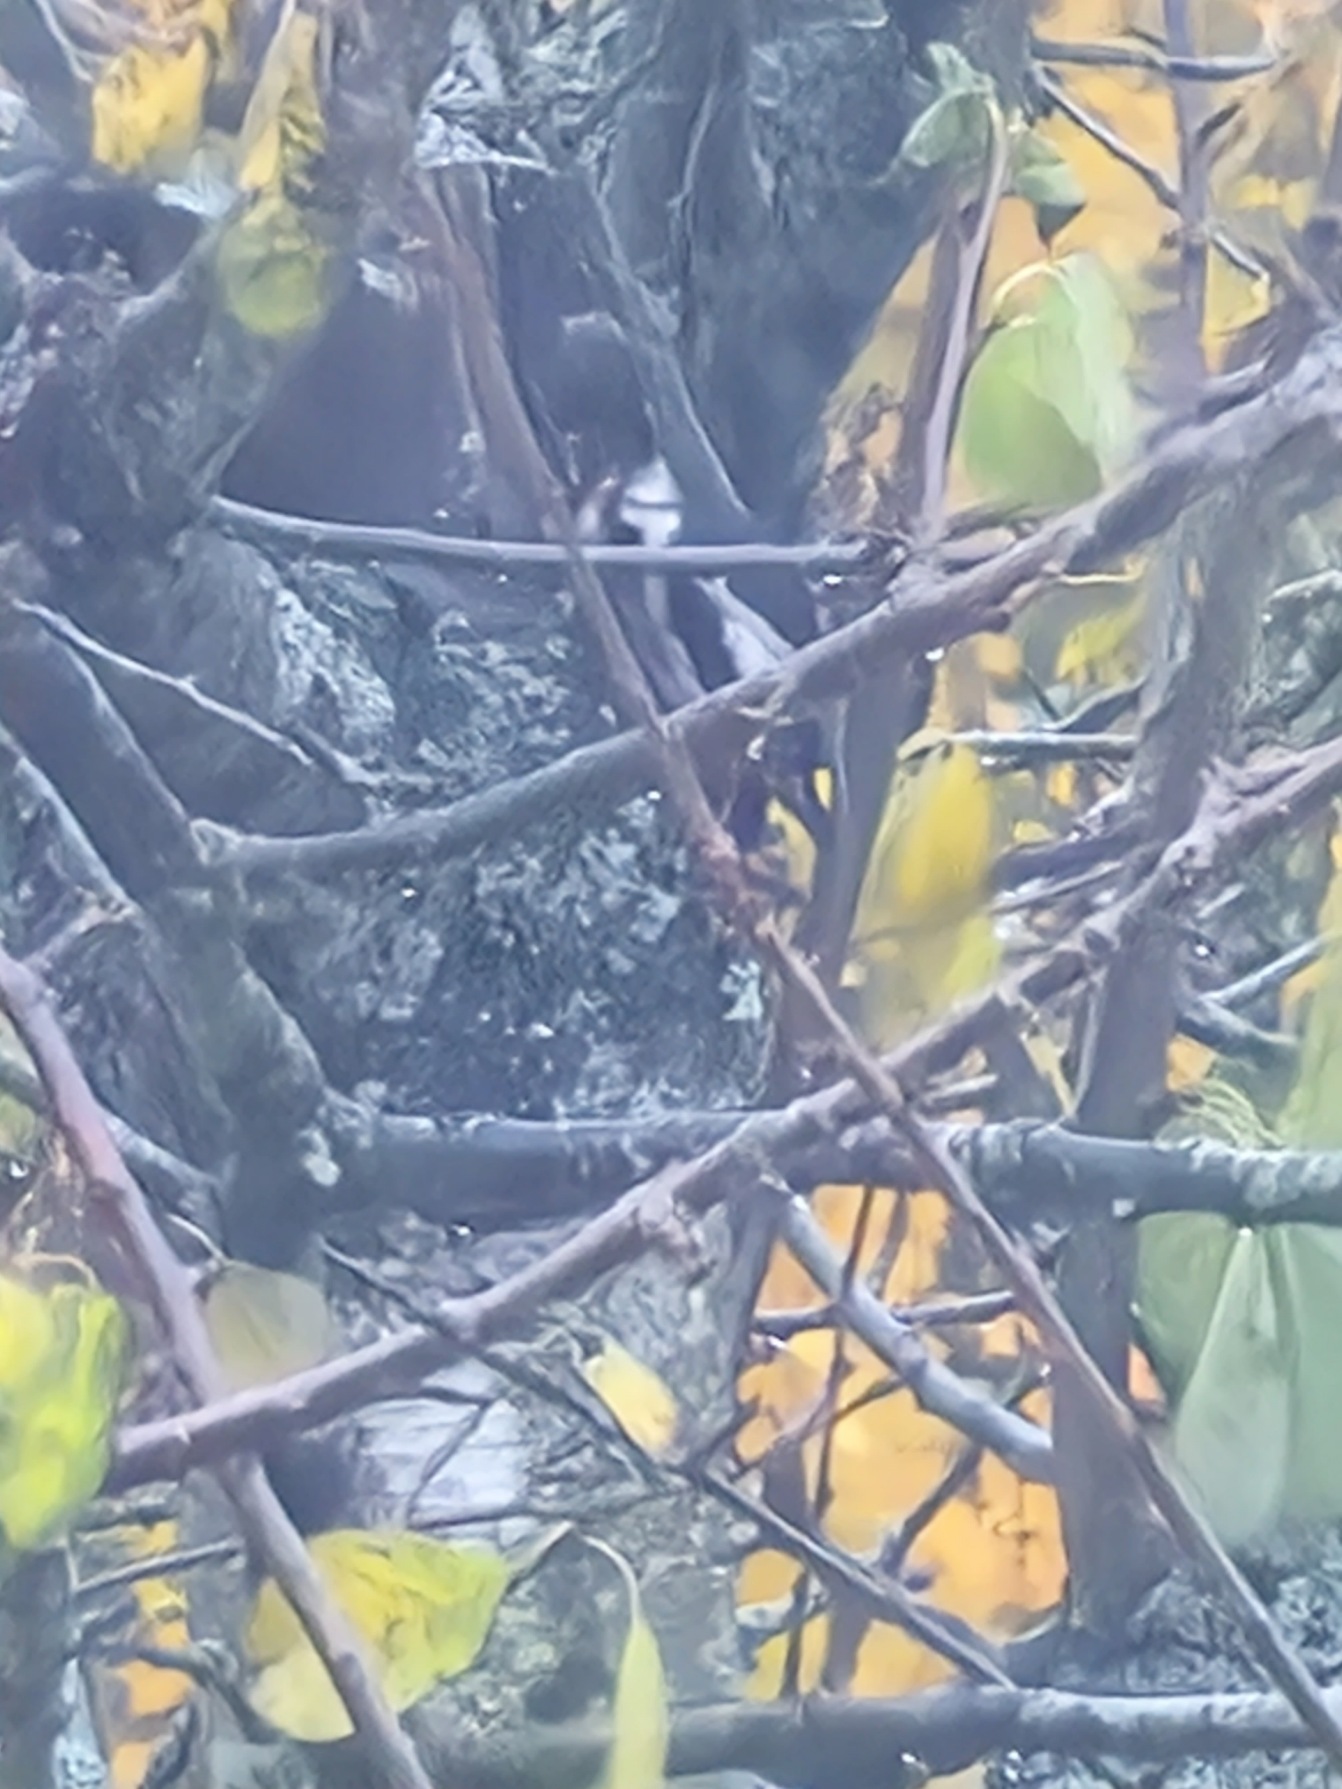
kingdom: Animalia
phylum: Chordata
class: Aves
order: Piciformes
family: Picidae
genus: Dendrocopos
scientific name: Dendrocopos major
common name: Stor flagspætte
